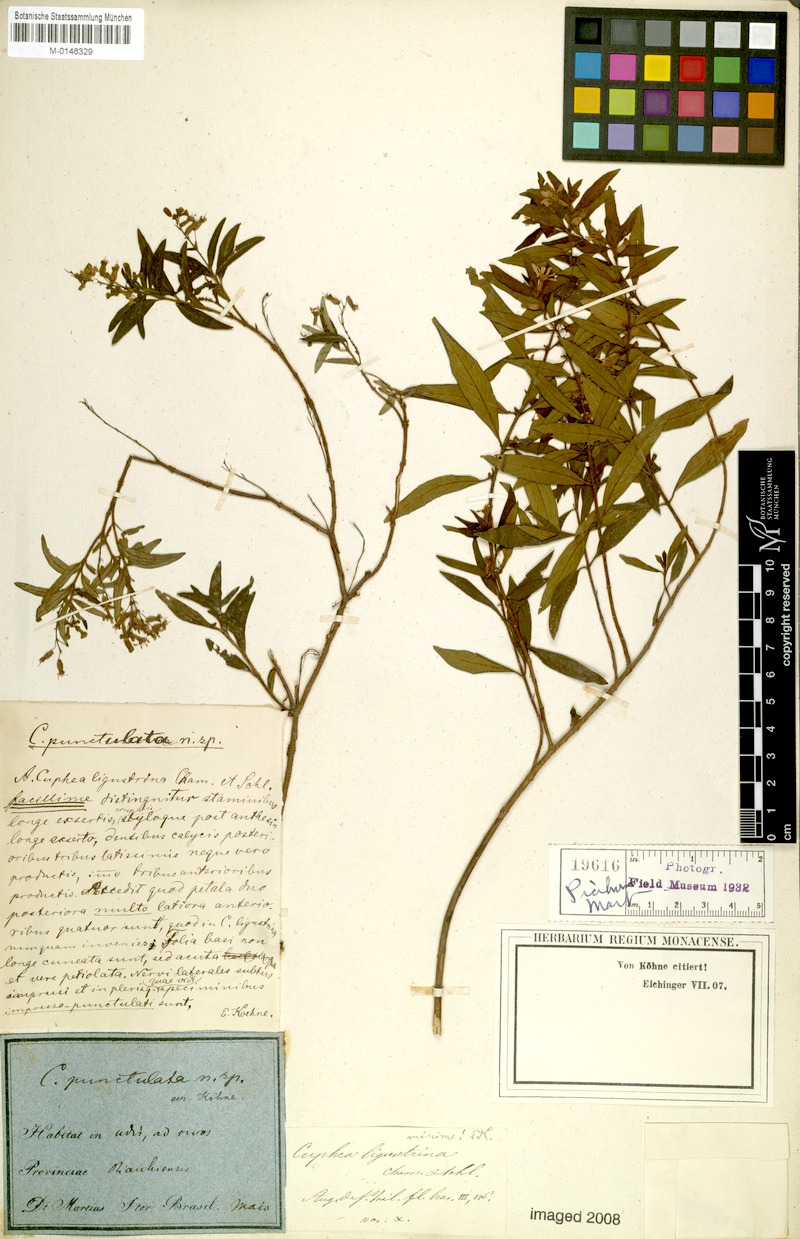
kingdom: Plantae
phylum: Tracheophyta
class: Magnoliopsida
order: Myrtales
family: Lythraceae
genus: Cuphea
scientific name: Cuphea punctulata
